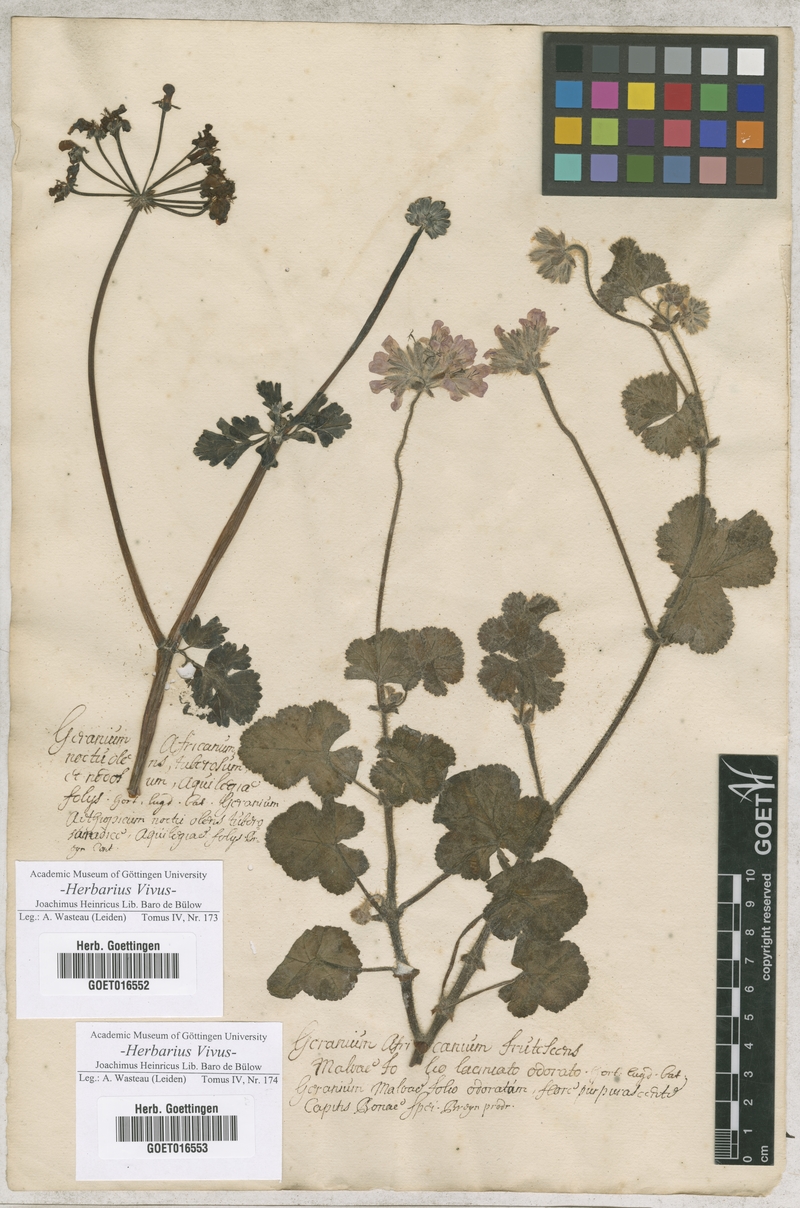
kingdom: Plantae
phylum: Tracheophyta
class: Magnoliopsida
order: Geraniales
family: Geraniaceae
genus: Pelargonium
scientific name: Pelargonium gibbosum
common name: Gouty geranium
